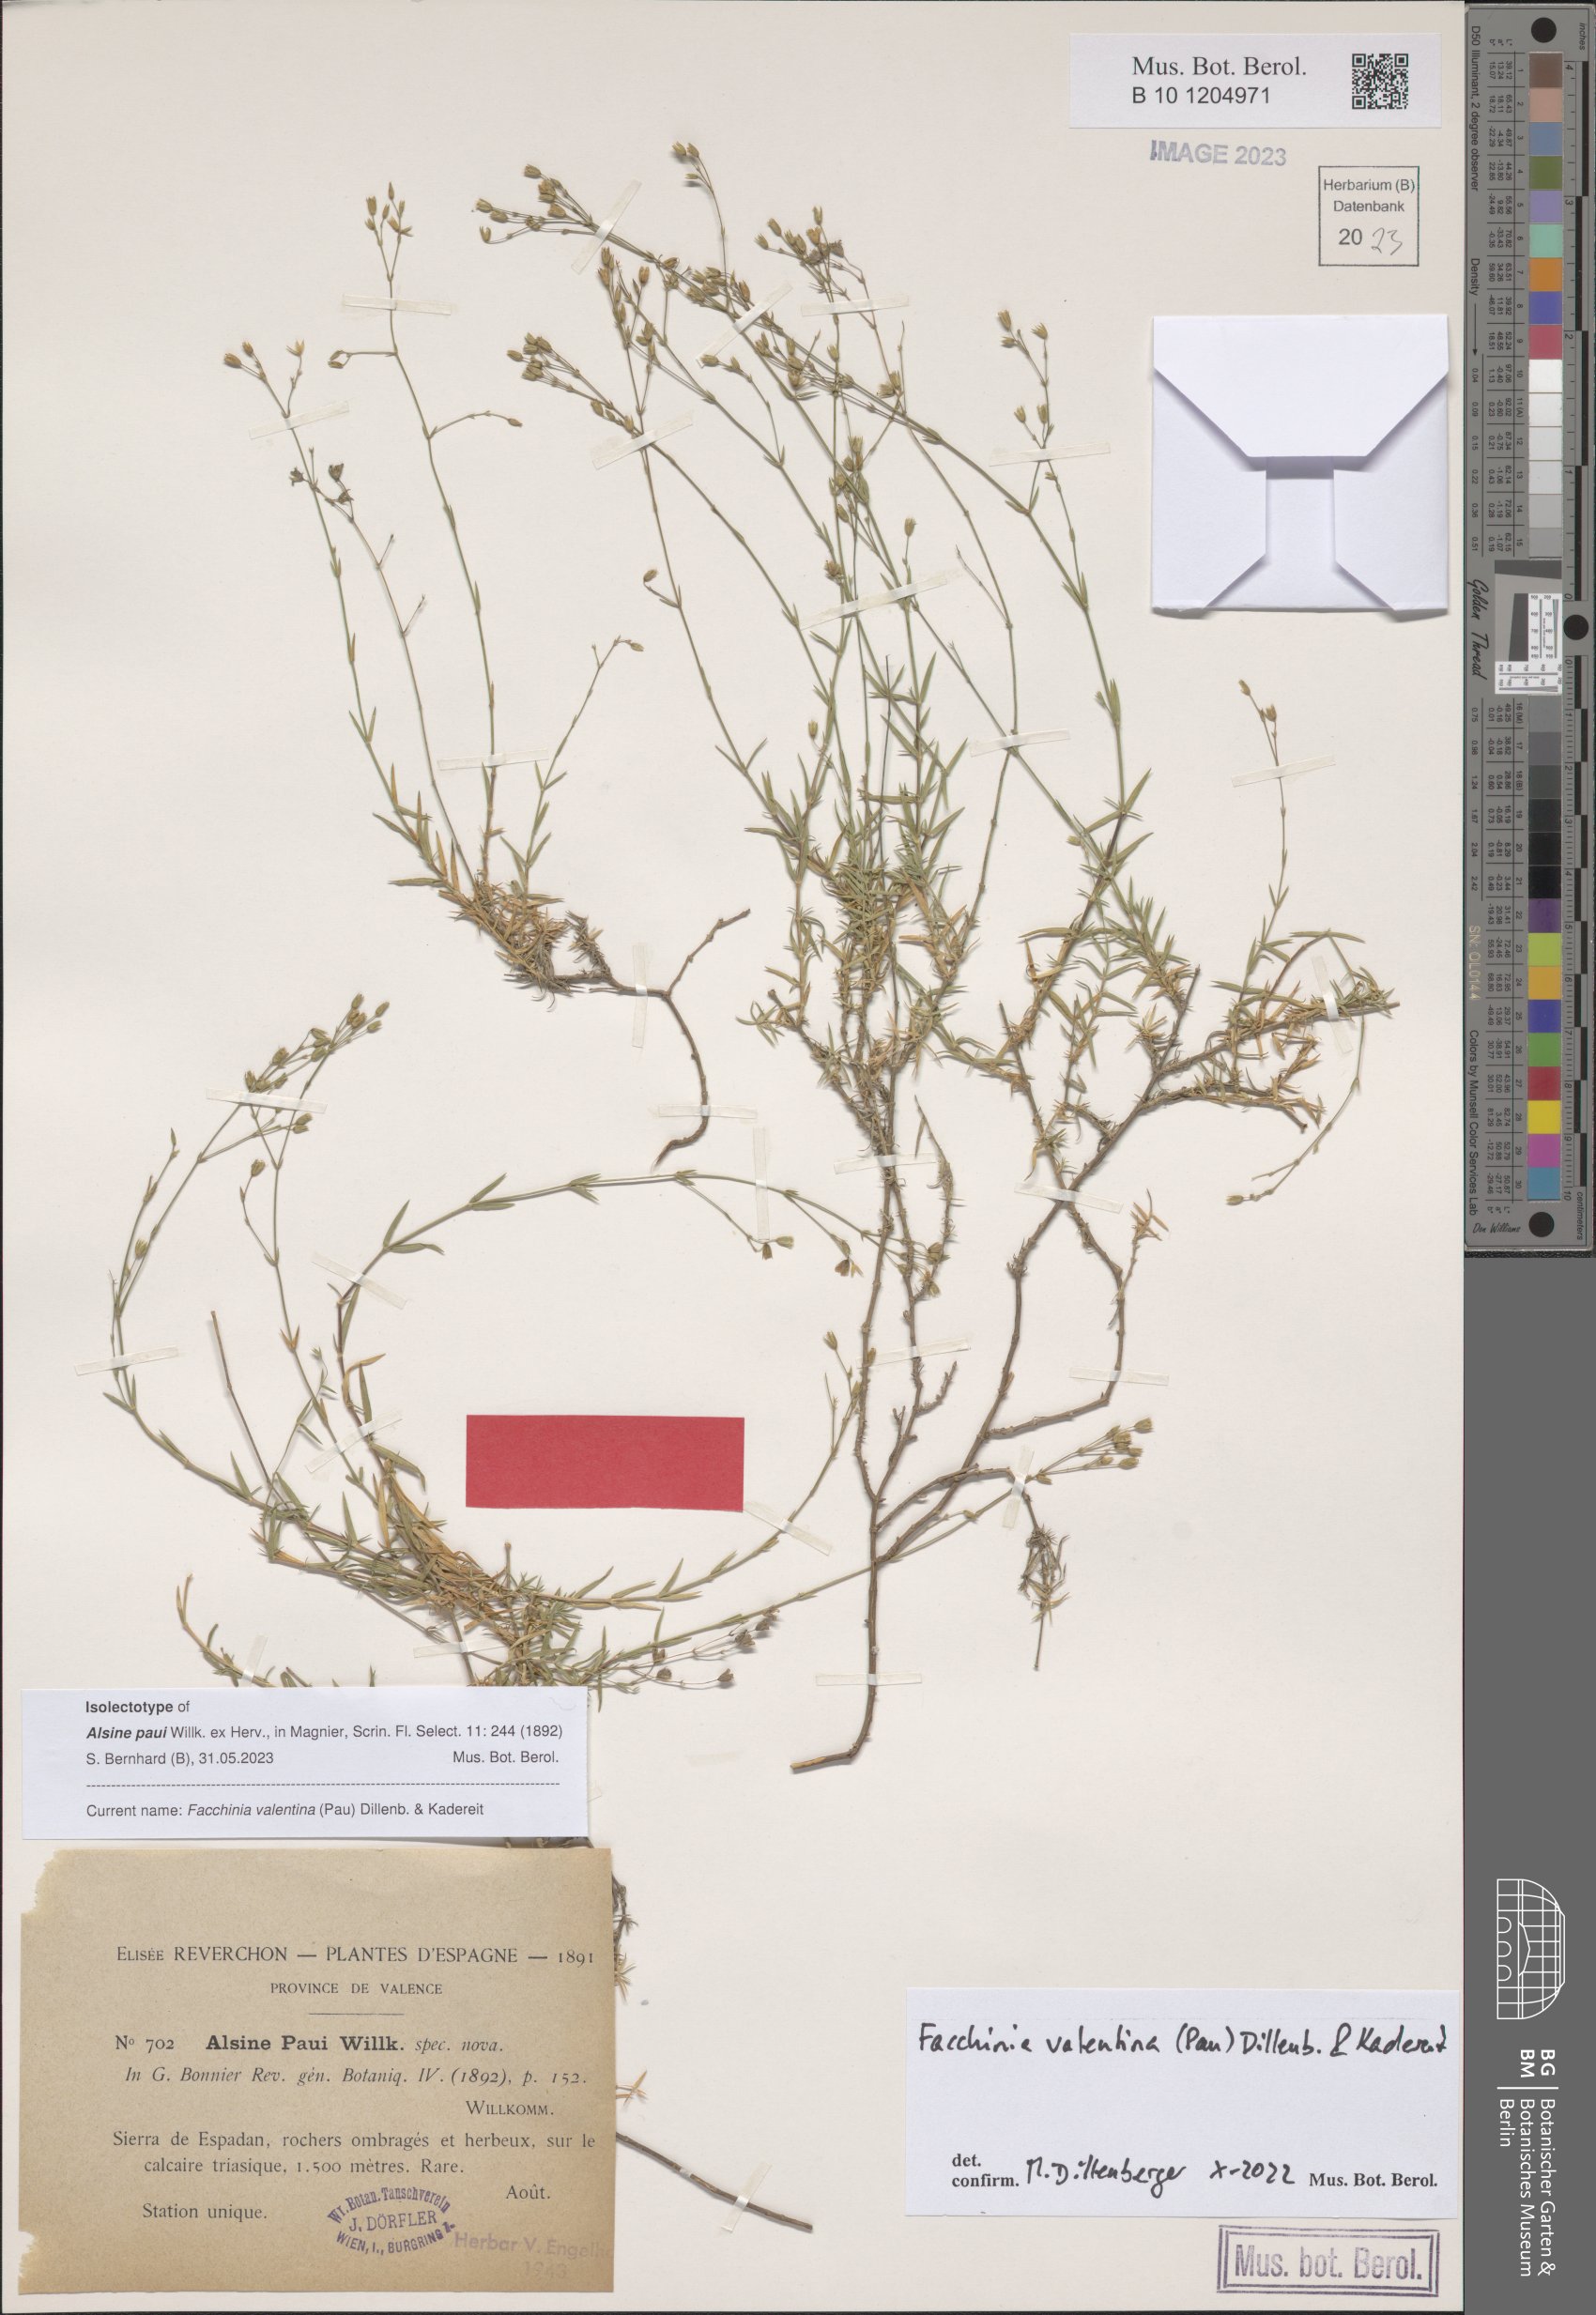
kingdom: Plantae
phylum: Tracheophyta
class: Magnoliopsida
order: Caryophyllales
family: Caryophyllaceae
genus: Facchinia
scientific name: Facchinia valentina
